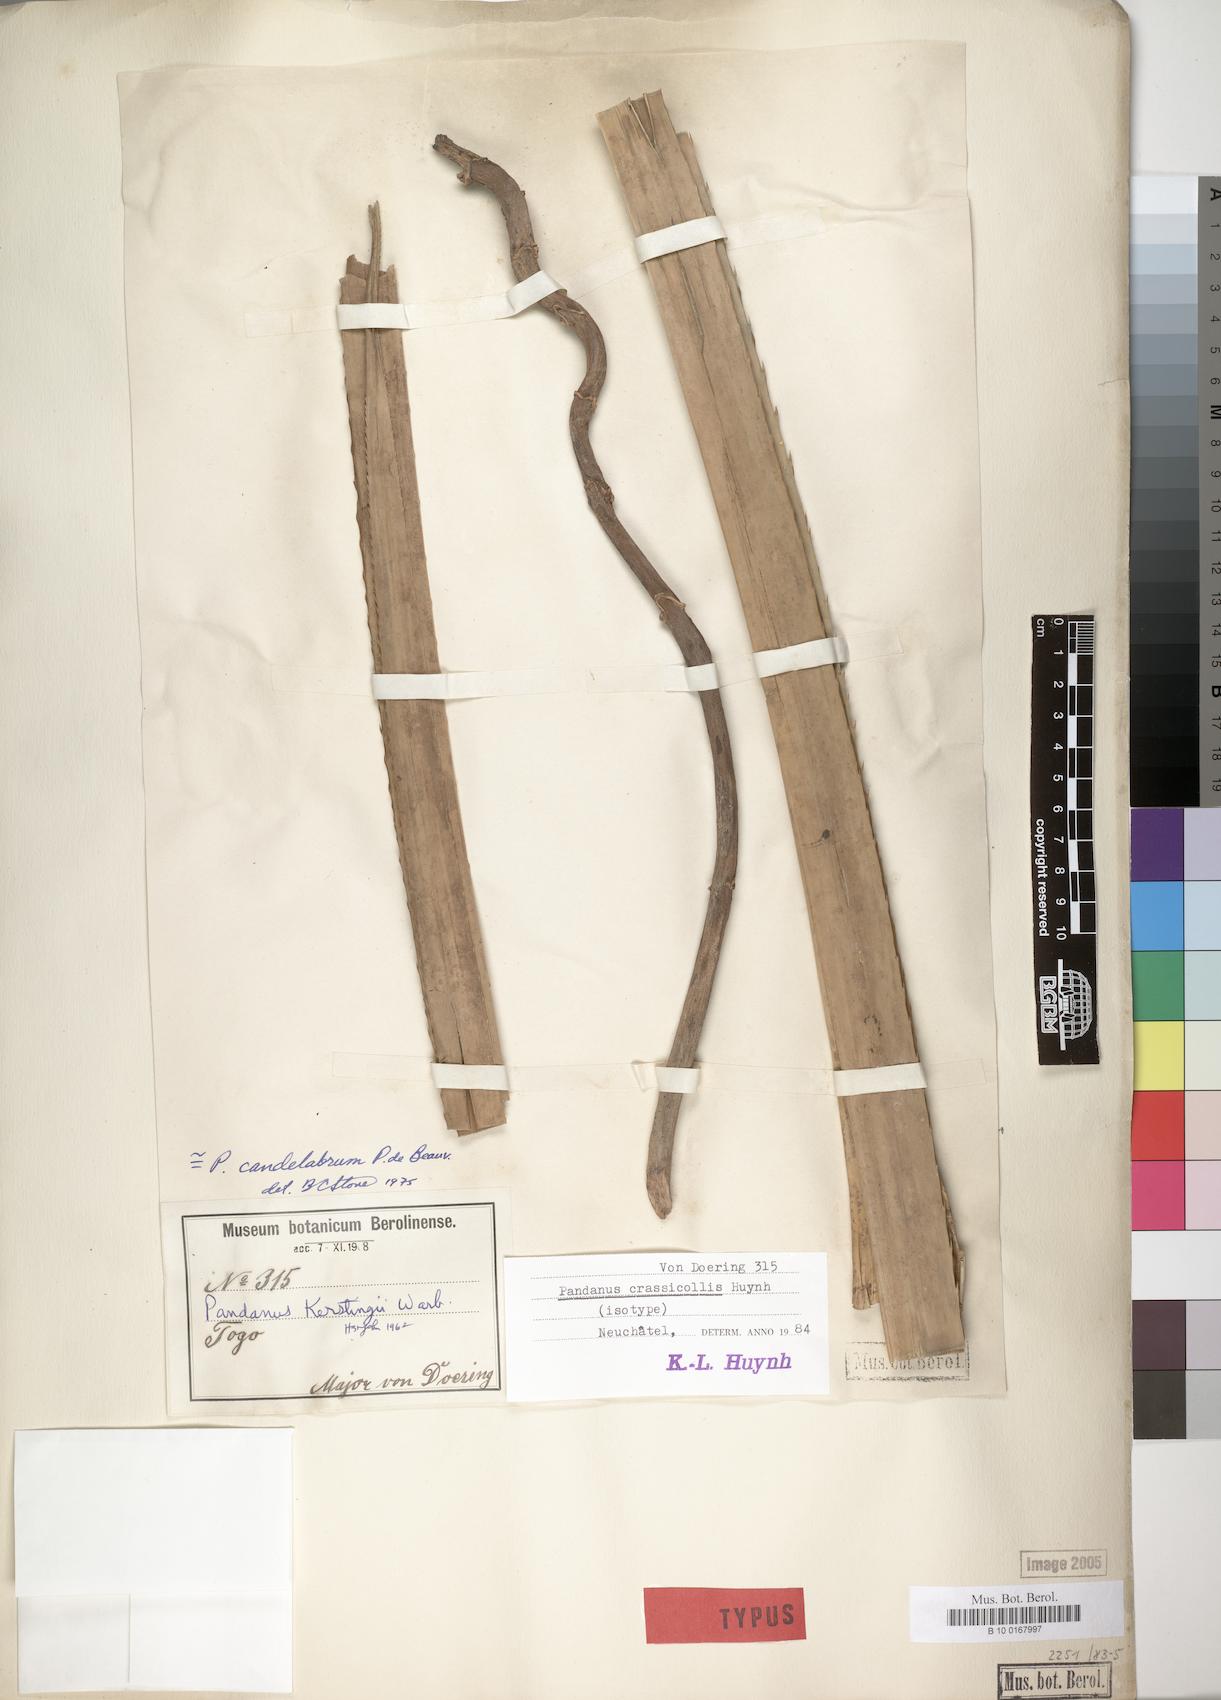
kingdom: Plantae
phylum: Tracheophyta
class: Liliopsida
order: Pandanales
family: Pandanaceae
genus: Pandanus
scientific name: Pandanus candelabrum
